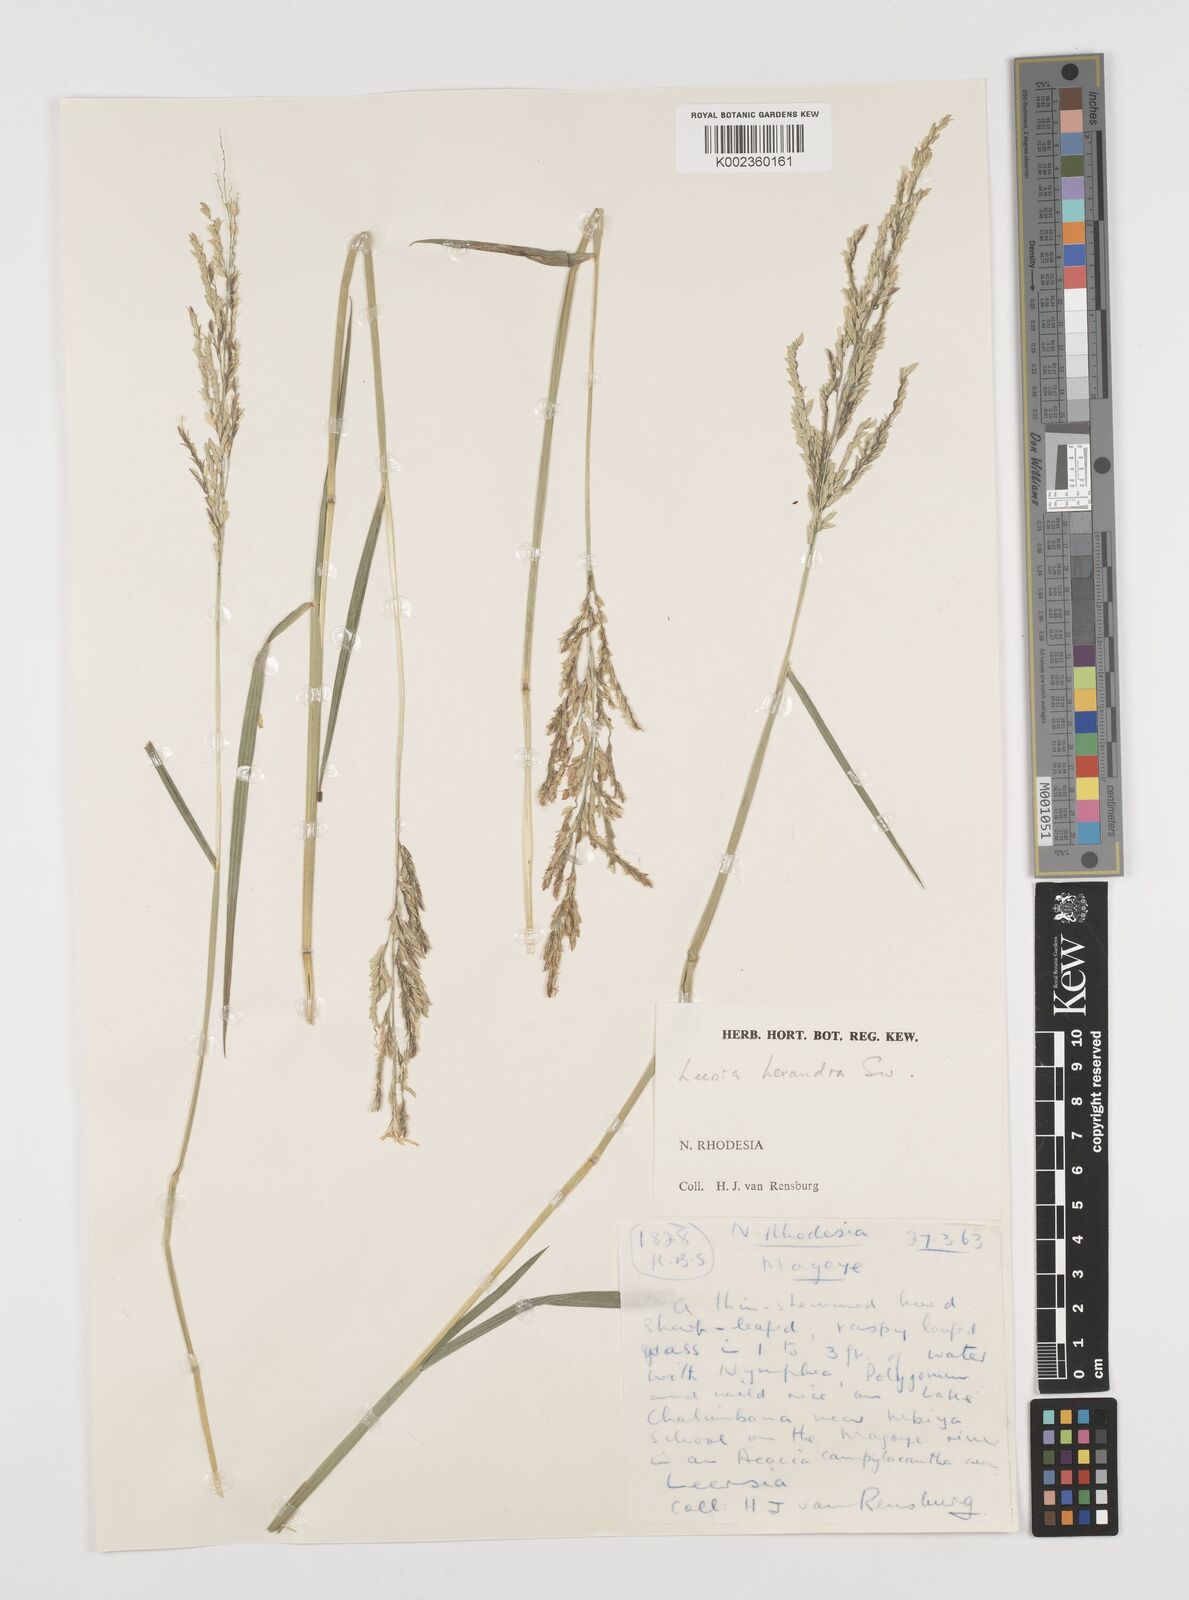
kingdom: Plantae
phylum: Tracheophyta
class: Liliopsida
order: Poales
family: Poaceae
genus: Leersia
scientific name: Leersia hexandra
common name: Southern cut grass
